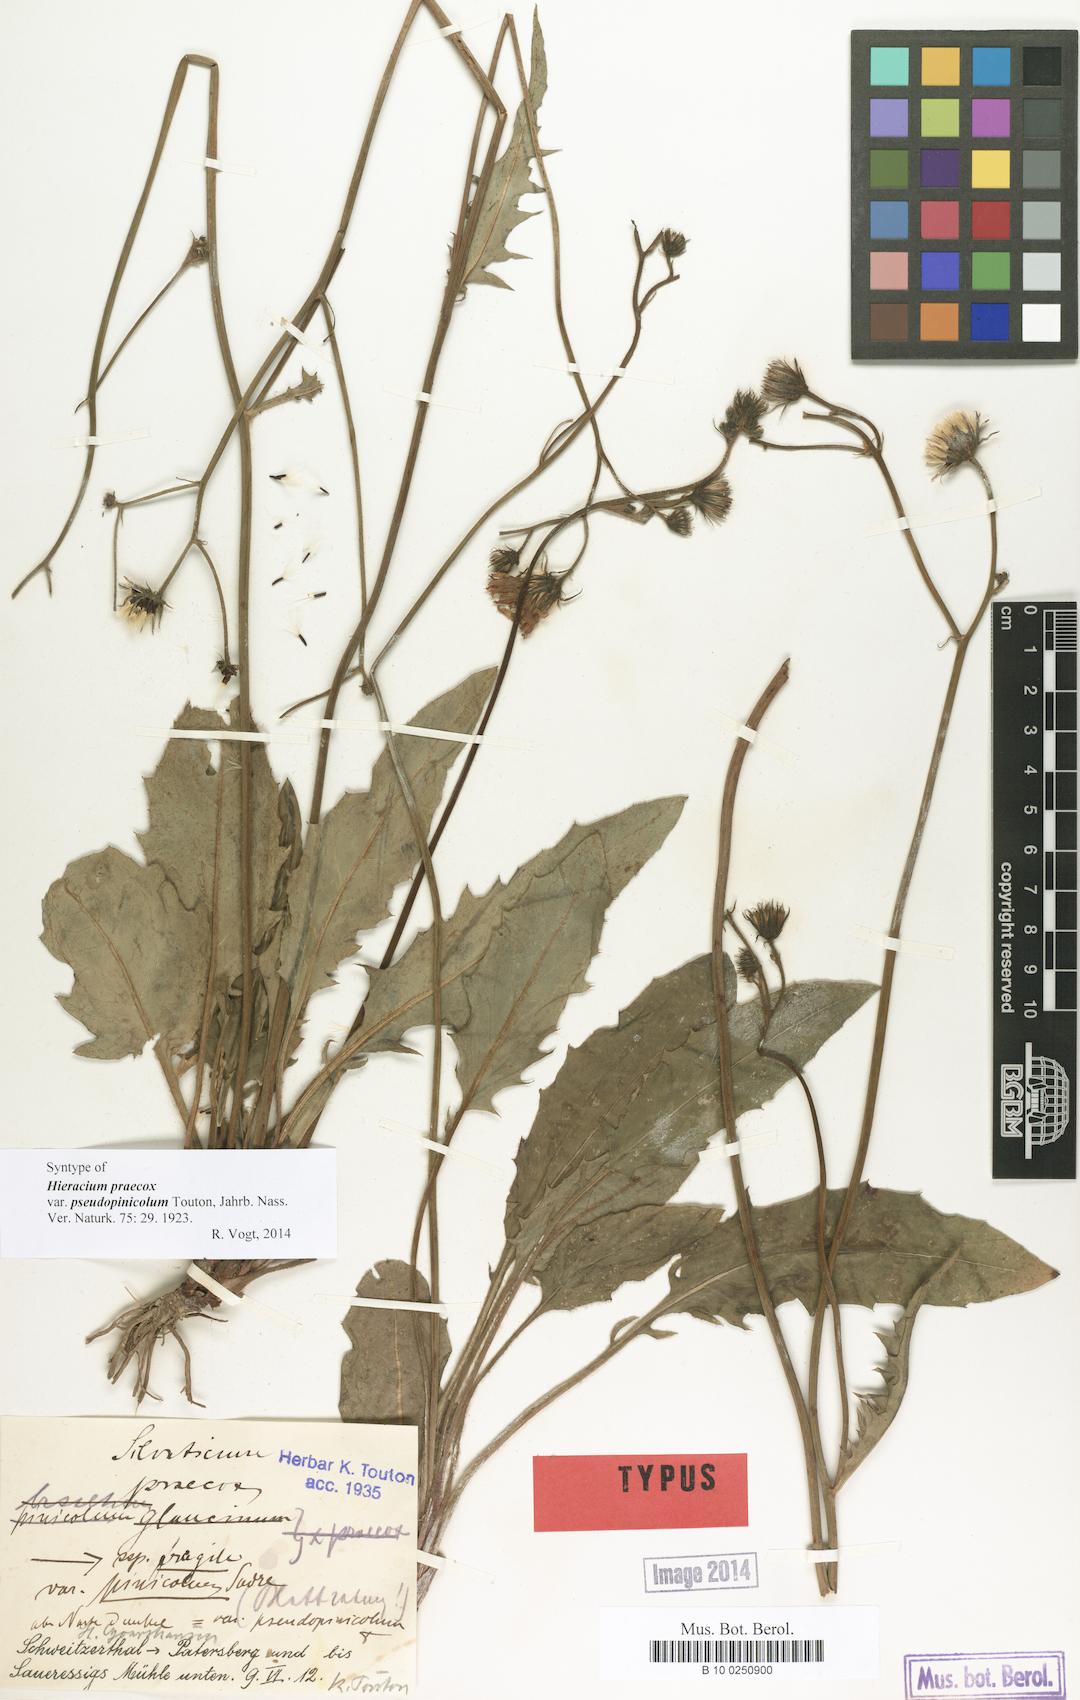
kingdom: Plantae
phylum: Tracheophyta
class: Magnoliopsida
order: Asterales
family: Asteraceae
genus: Hieracium
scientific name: Hieracium praecox
